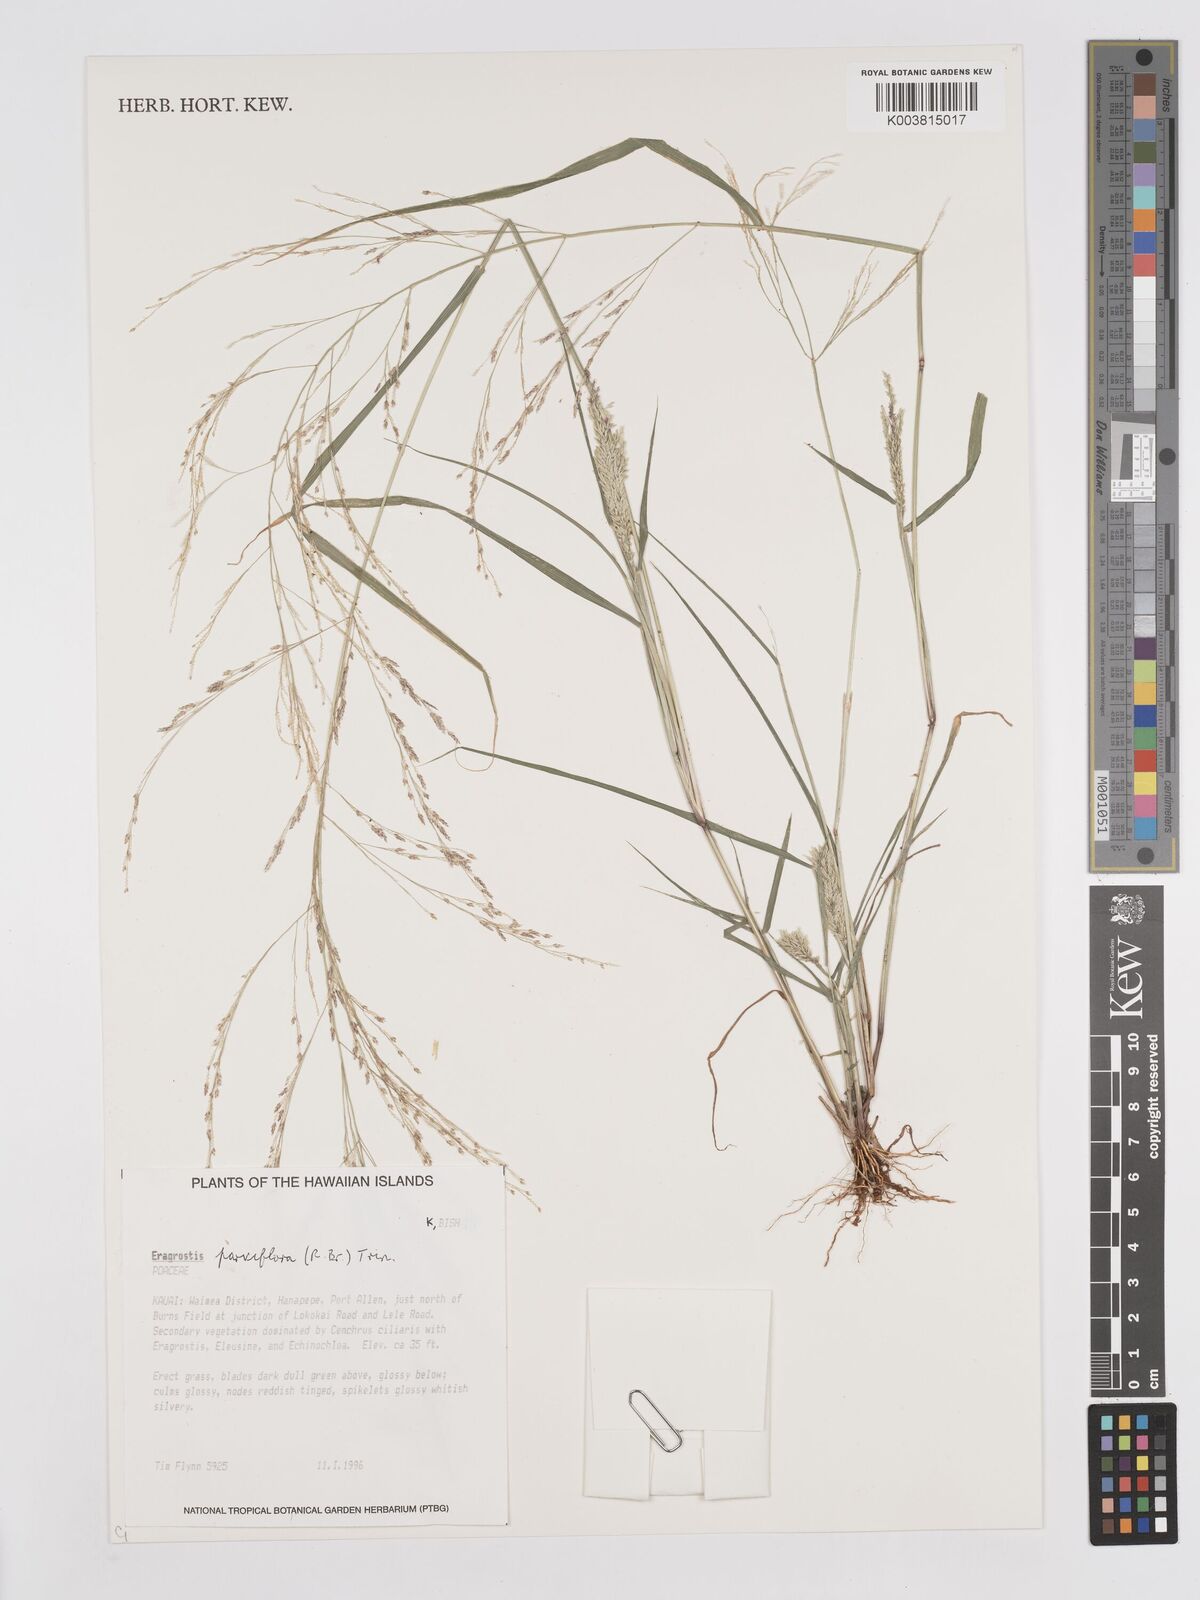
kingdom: Plantae
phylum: Tracheophyta
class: Liliopsida
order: Poales
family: Poaceae
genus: Eragrostis
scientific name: Eragrostis parviflora
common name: Weeping love-grass
